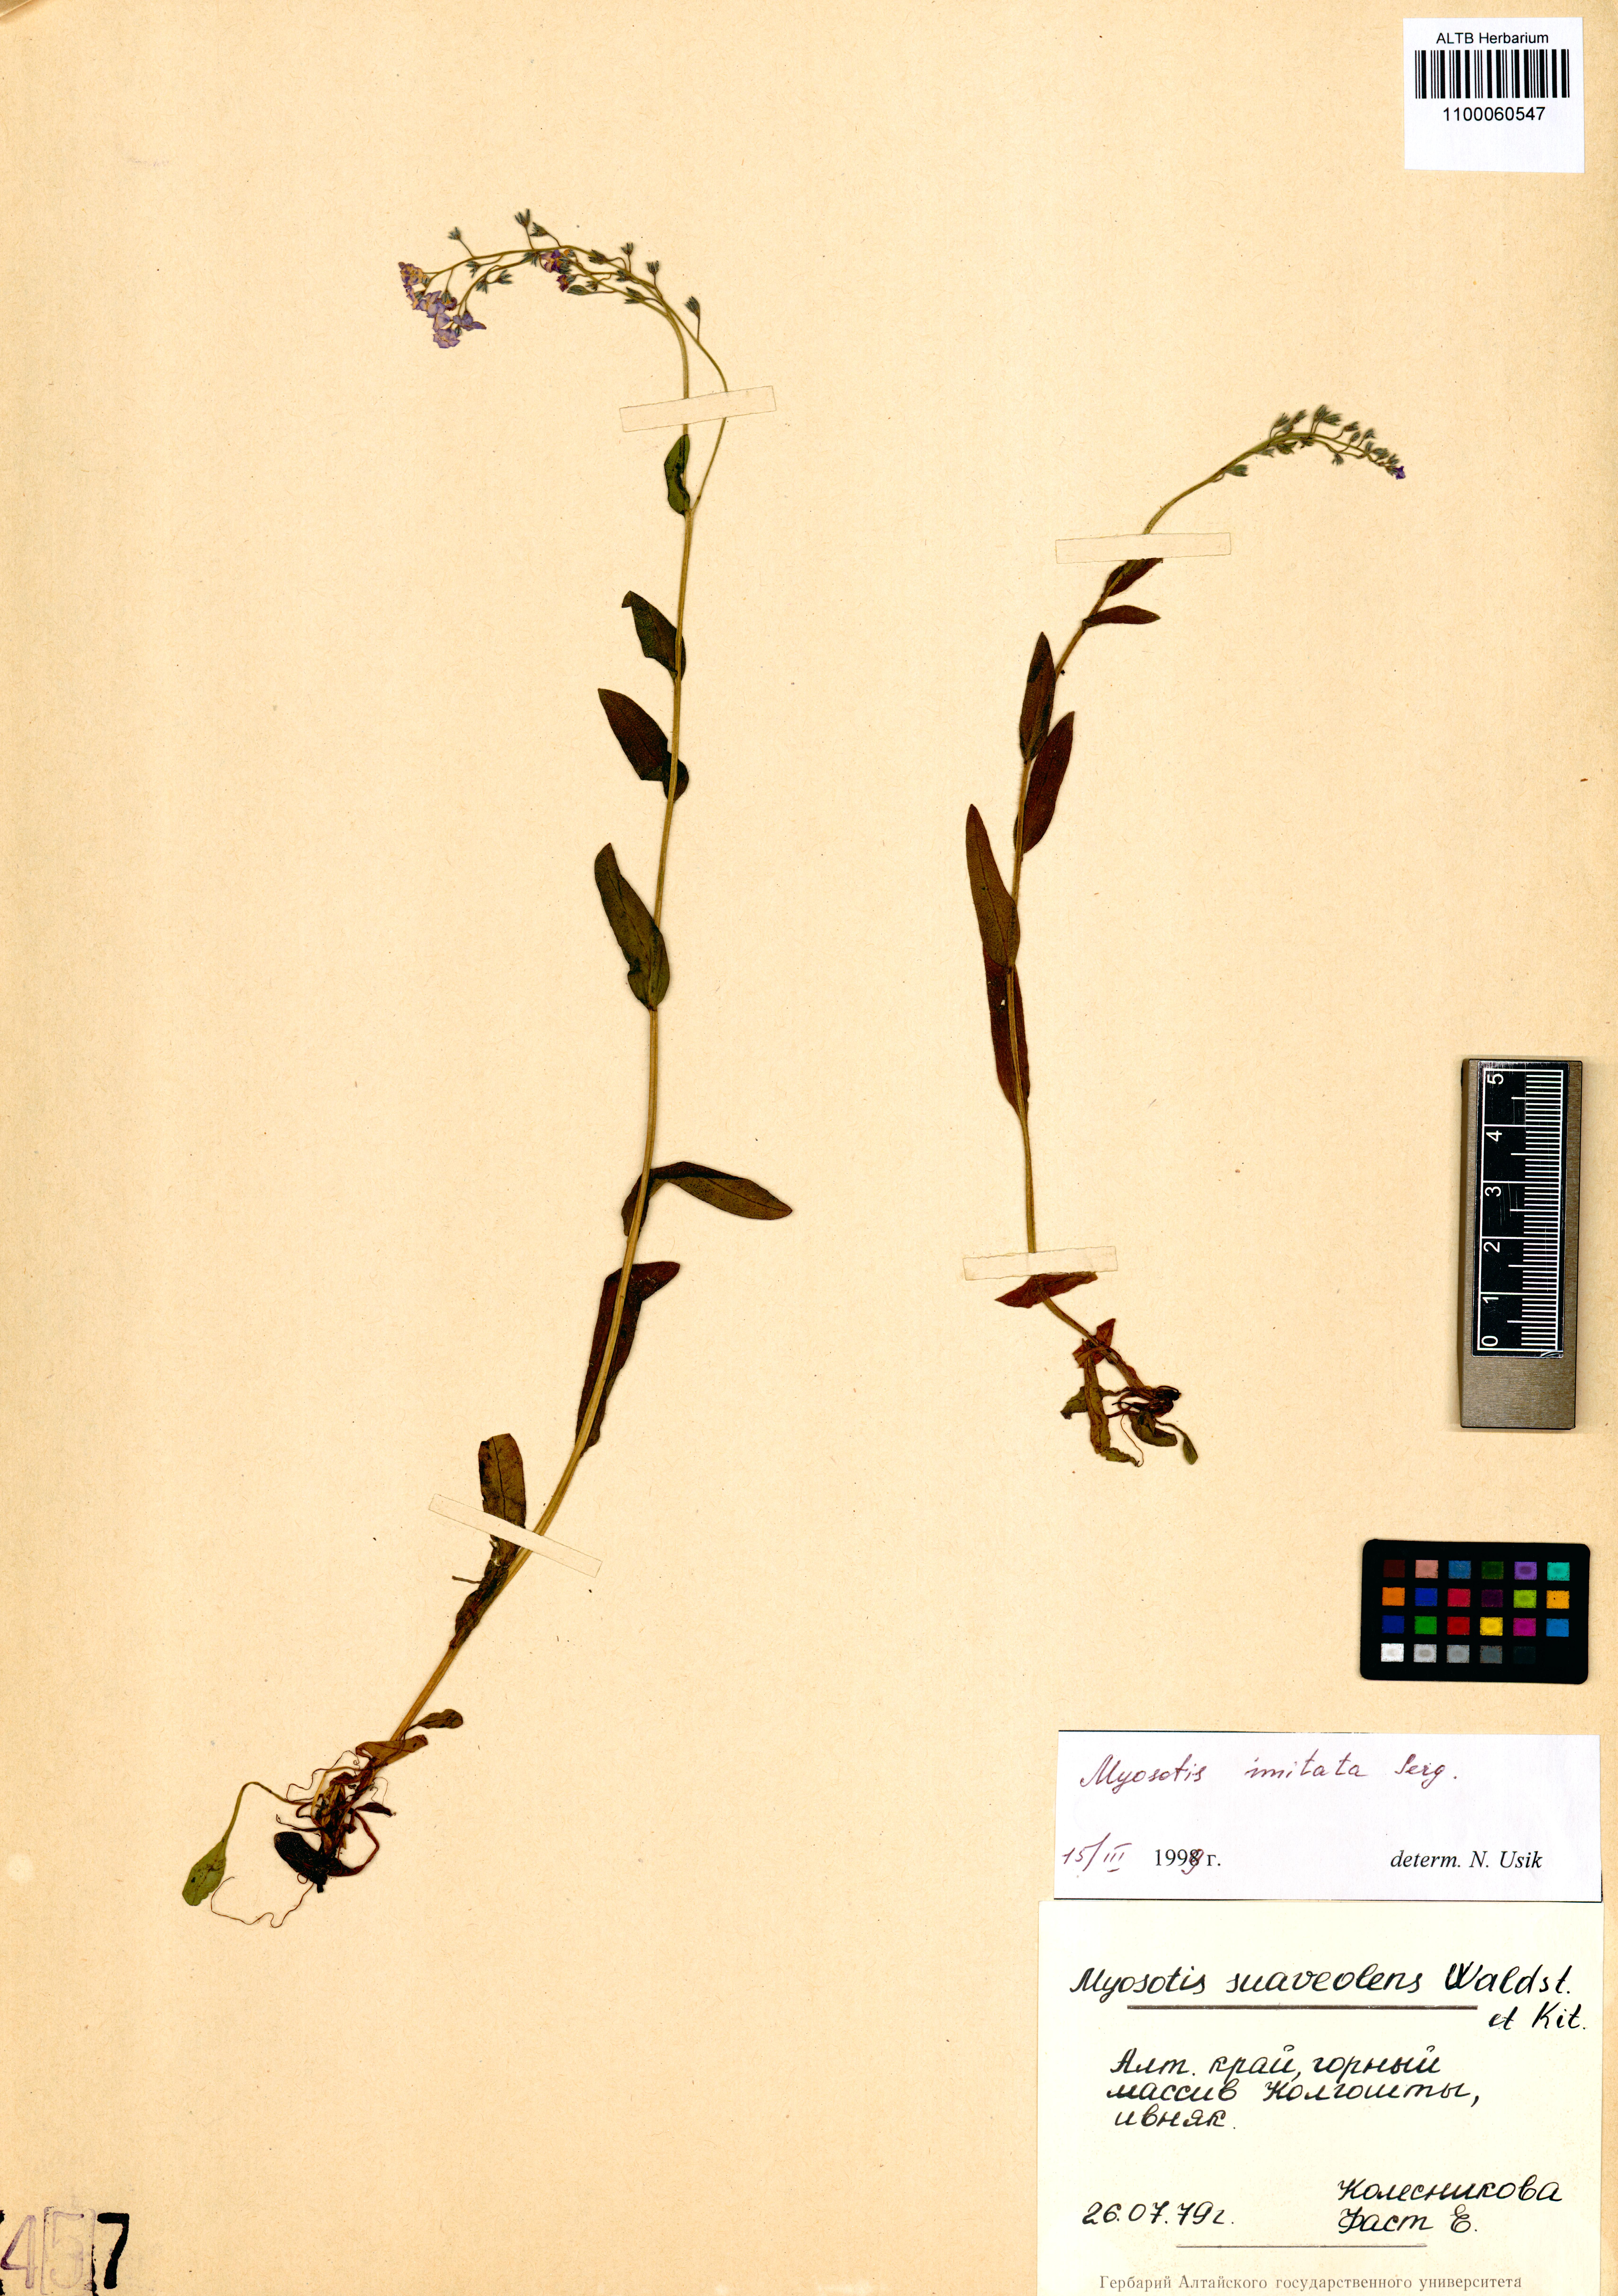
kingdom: Plantae
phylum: Tracheophyta
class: Magnoliopsida
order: Boraginales
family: Boraginaceae
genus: Myosotis
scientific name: Myosotis imitata
